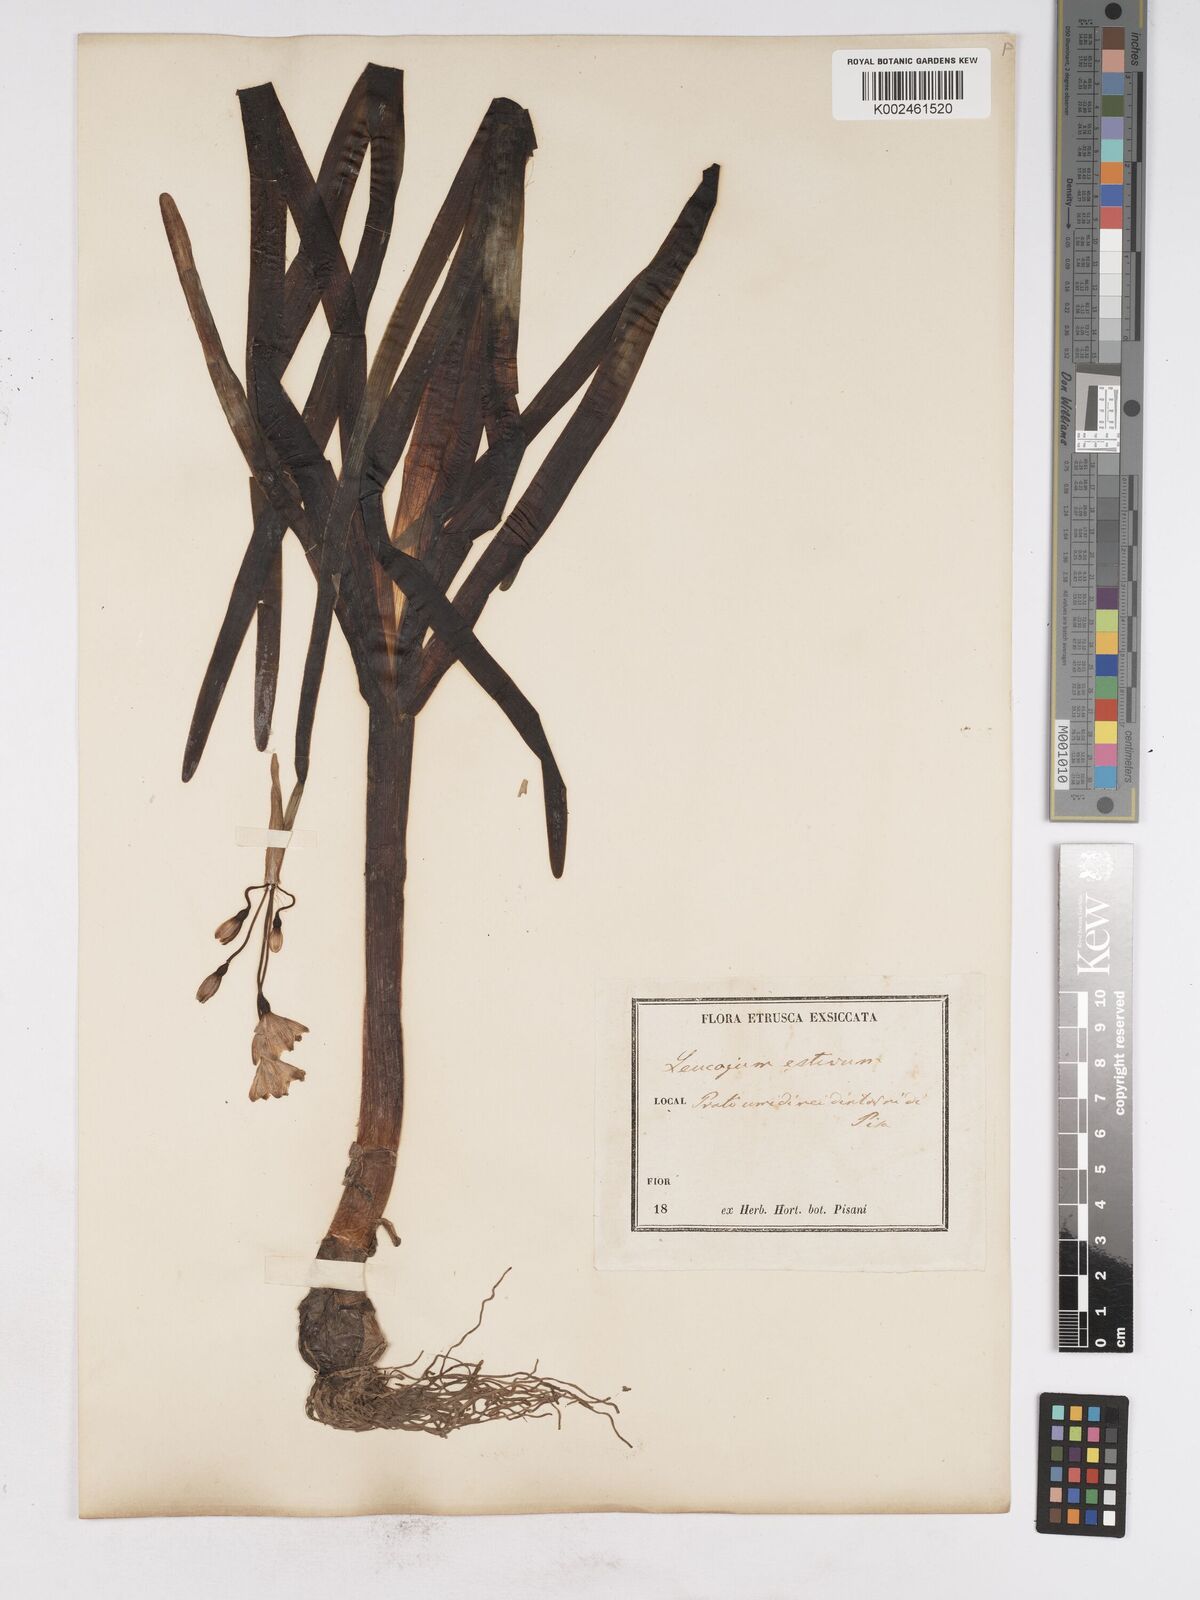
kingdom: Plantae
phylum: Tracheophyta
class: Liliopsida
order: Asparagales
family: Amaryllidaceae
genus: Leucojum
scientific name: Leucojum vernum
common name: Spring snowflake
